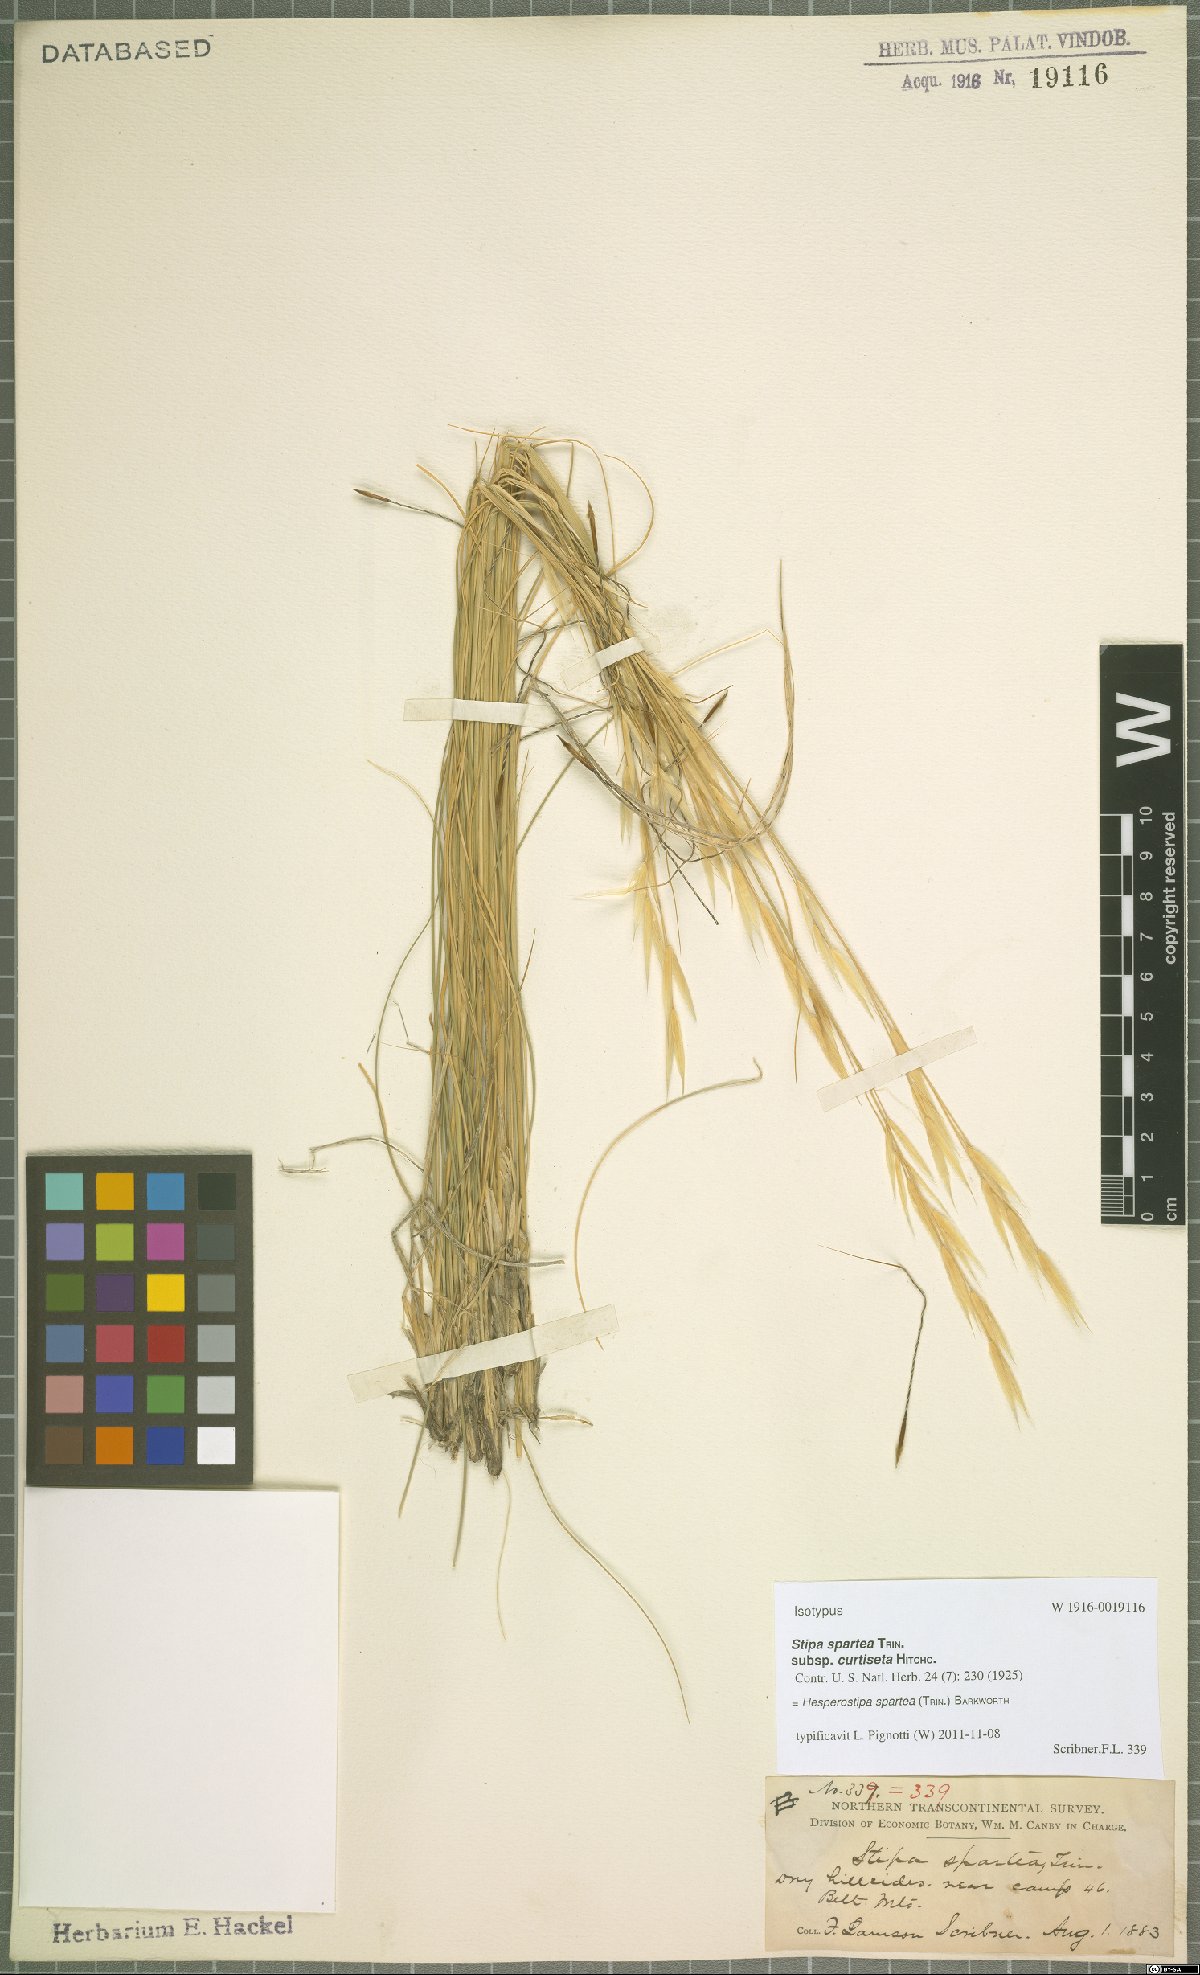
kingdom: Plantae
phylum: Tracheophyta
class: Liliopsida
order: Poales
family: Poaceae
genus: Hesperostipa
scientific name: Hesperostipa spartea
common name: Porcupine grass
